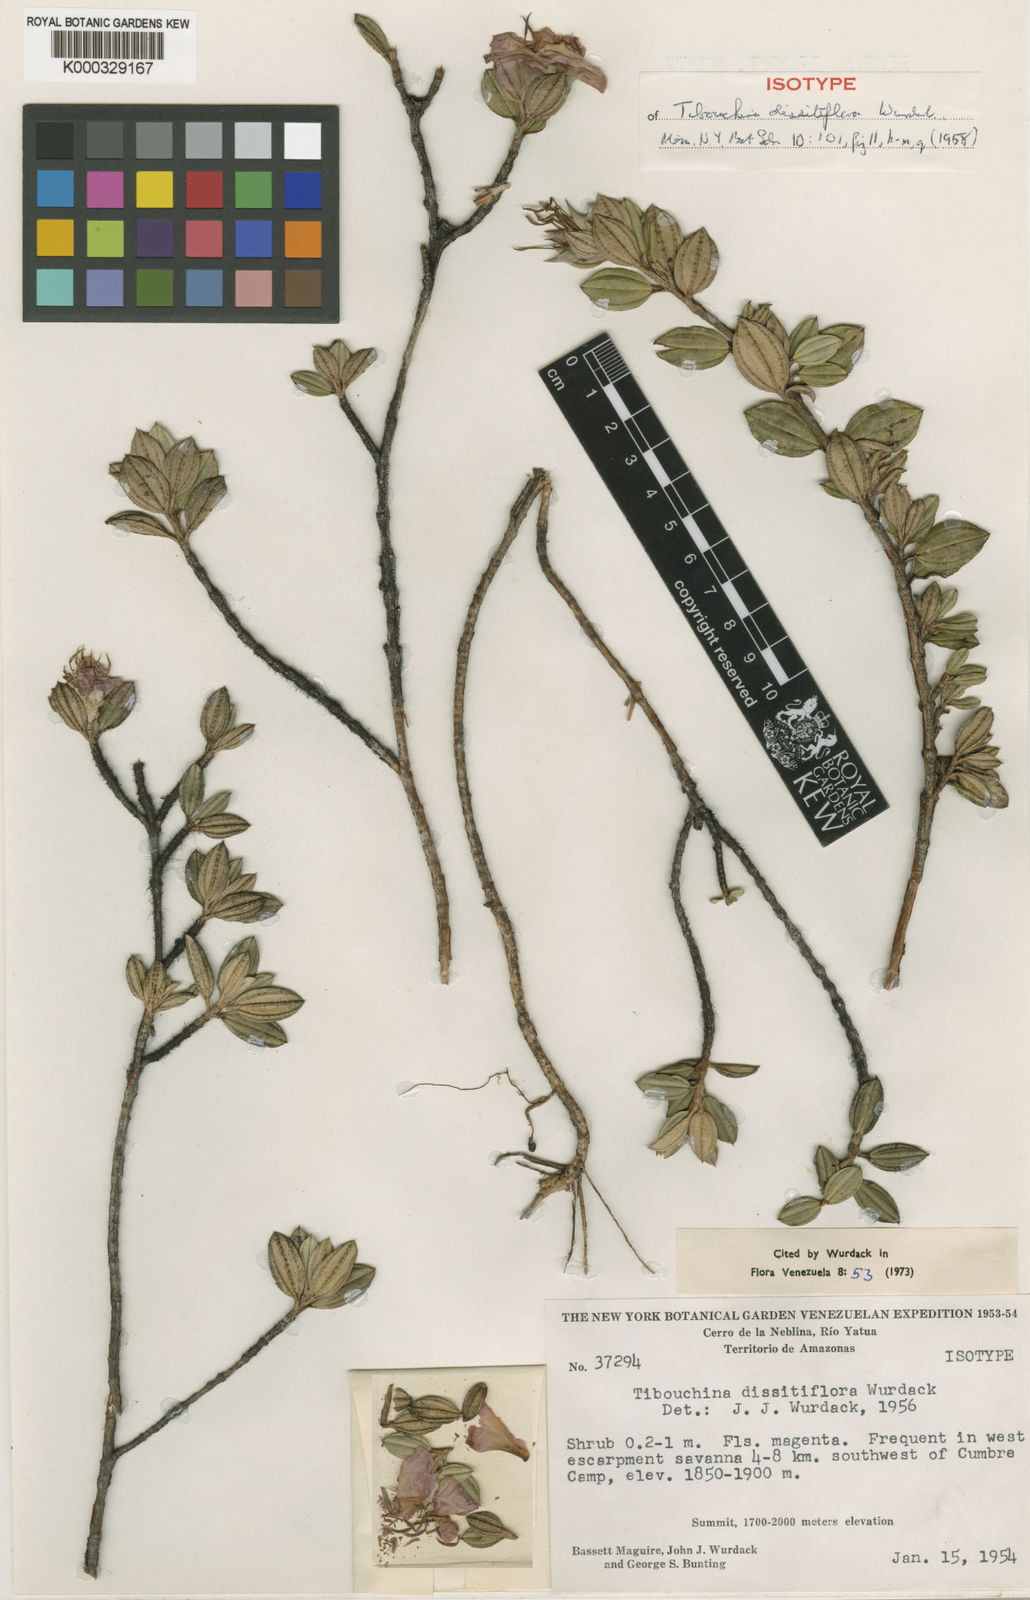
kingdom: Plantae
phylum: Tracheophyta
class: Magnoliopsida
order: Myrtales
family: Melastomataceae
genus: Tibouchina
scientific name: Tibouchina dissitiflora
